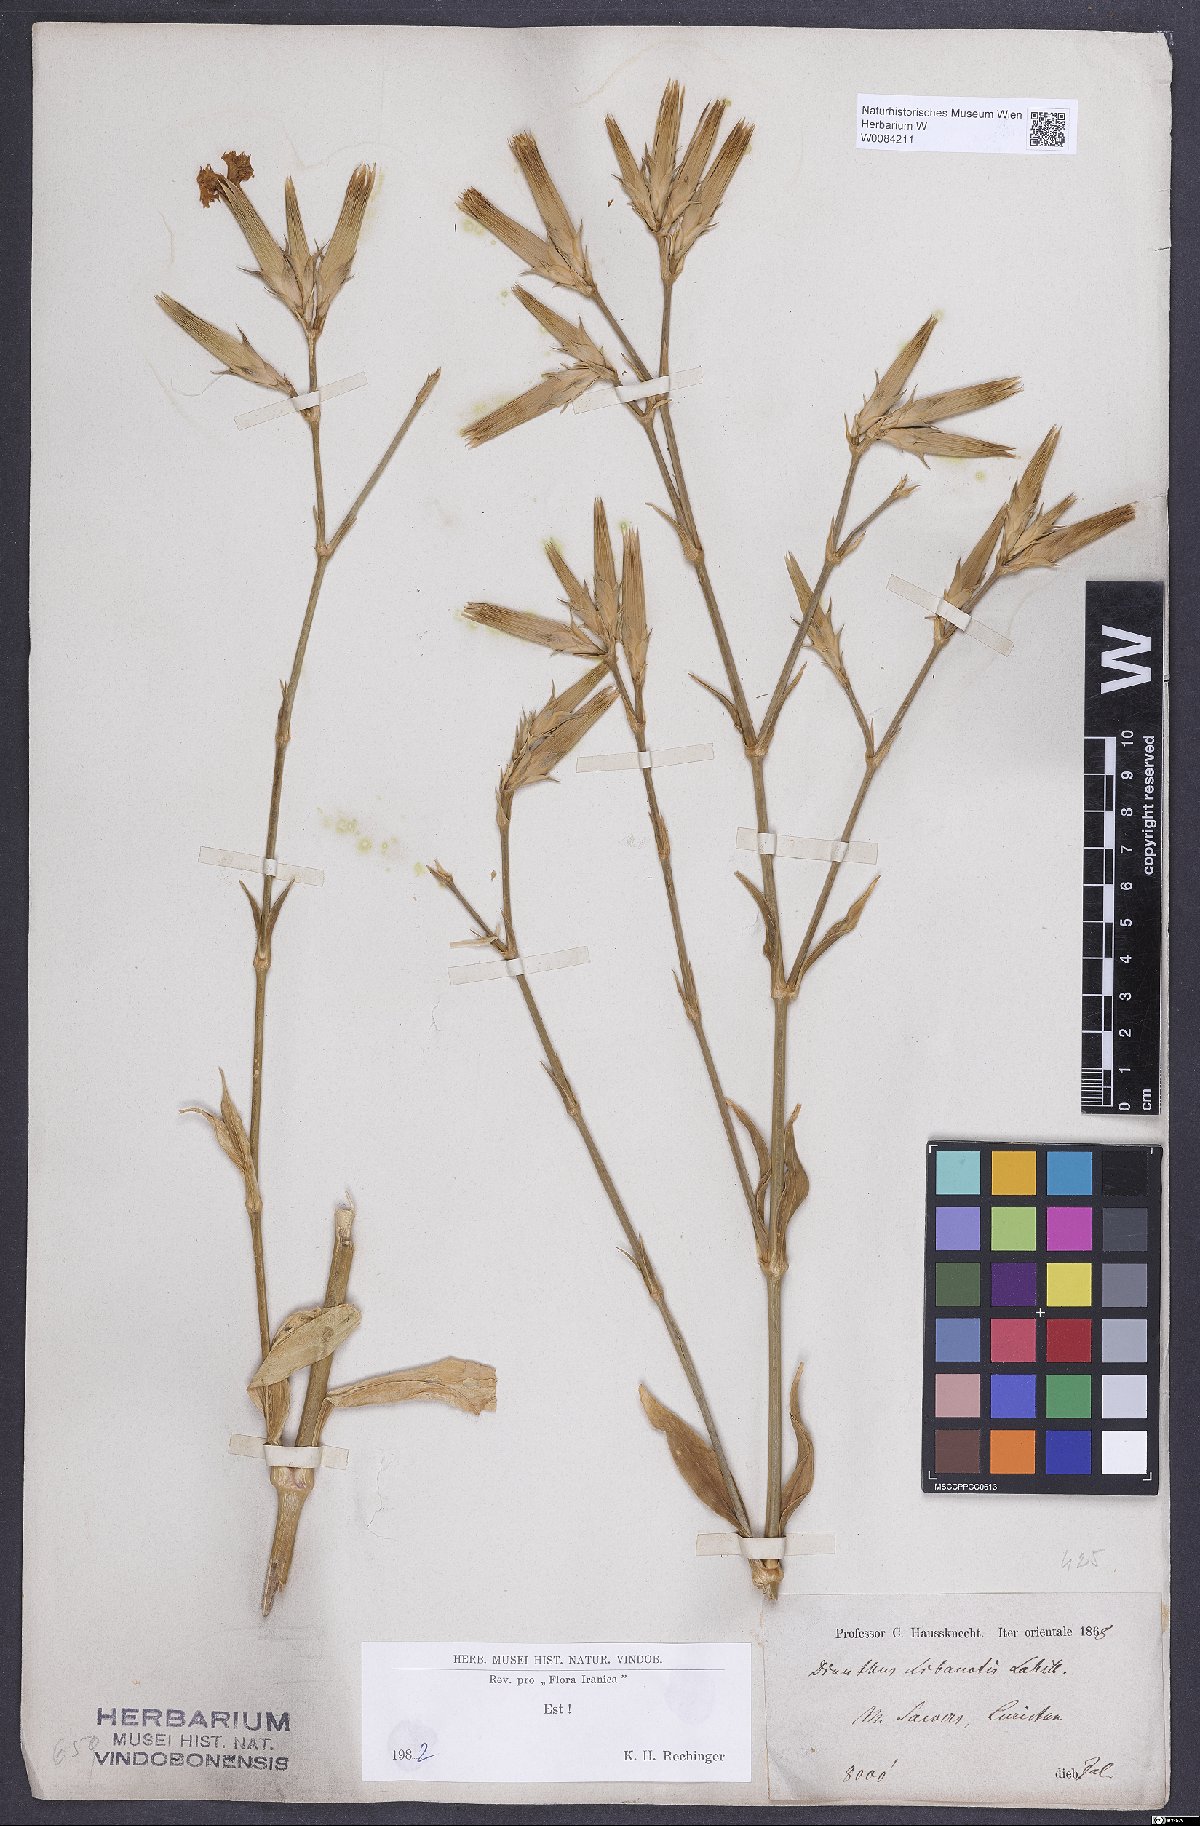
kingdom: Plantae
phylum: Tracheophyta
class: Magnoliopsida
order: Caryophyllales
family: Caryophyllaceae
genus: Dianthus
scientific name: Dianthus libanotis
